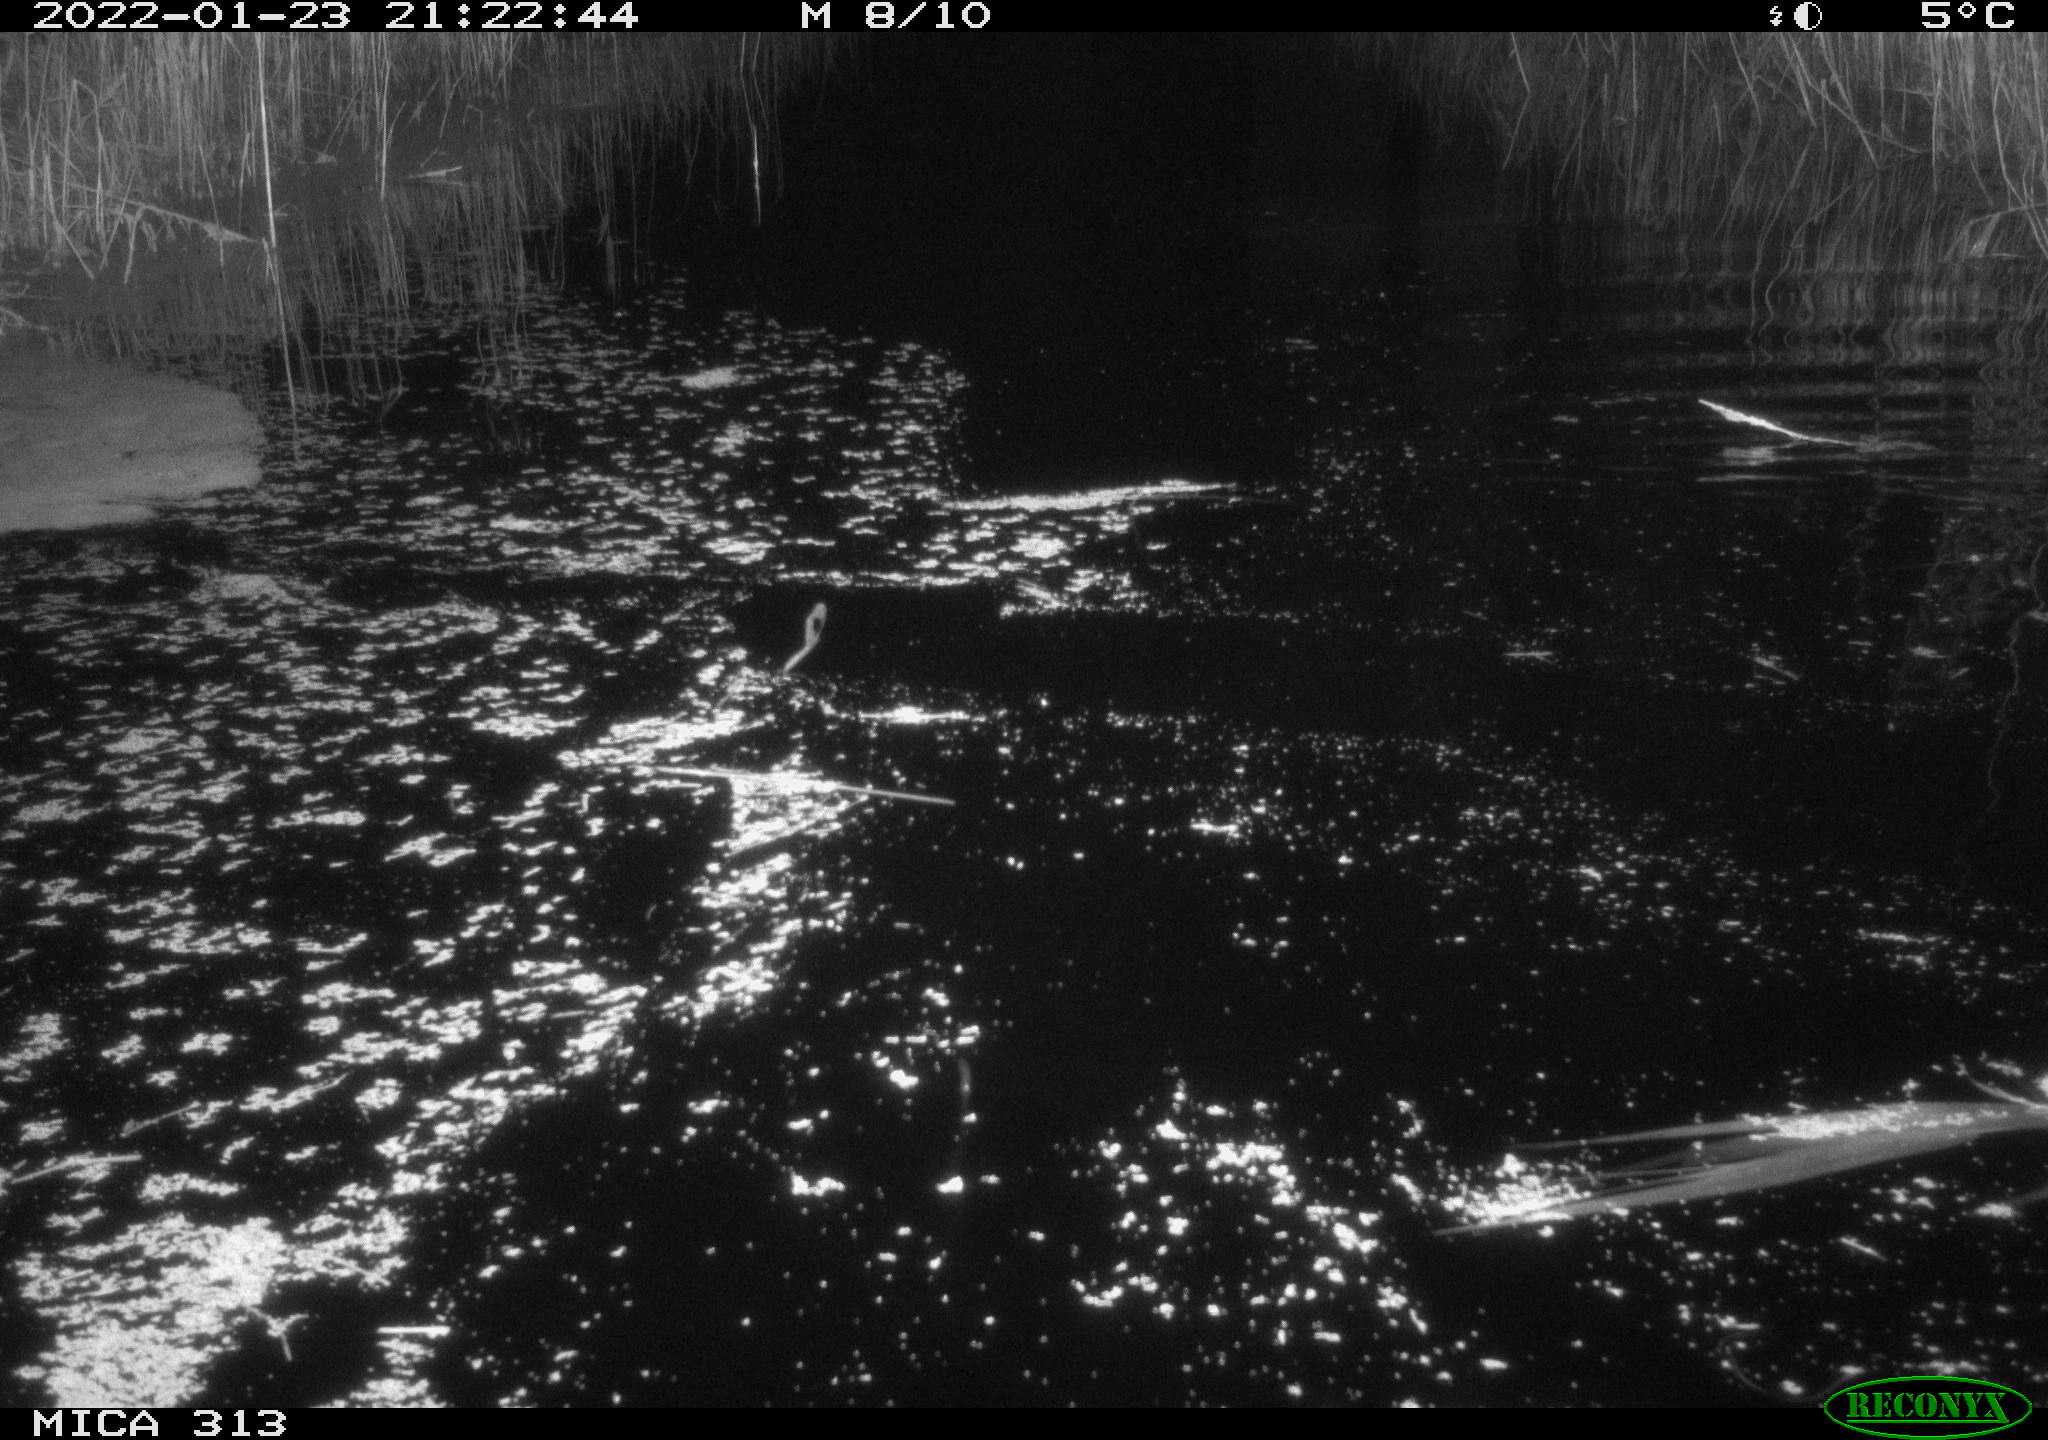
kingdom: Animalia
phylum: Chordata
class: Mammalia
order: Rodentia
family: Muridae
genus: Rattus
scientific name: Rattus norvegicus
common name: Brown rat
